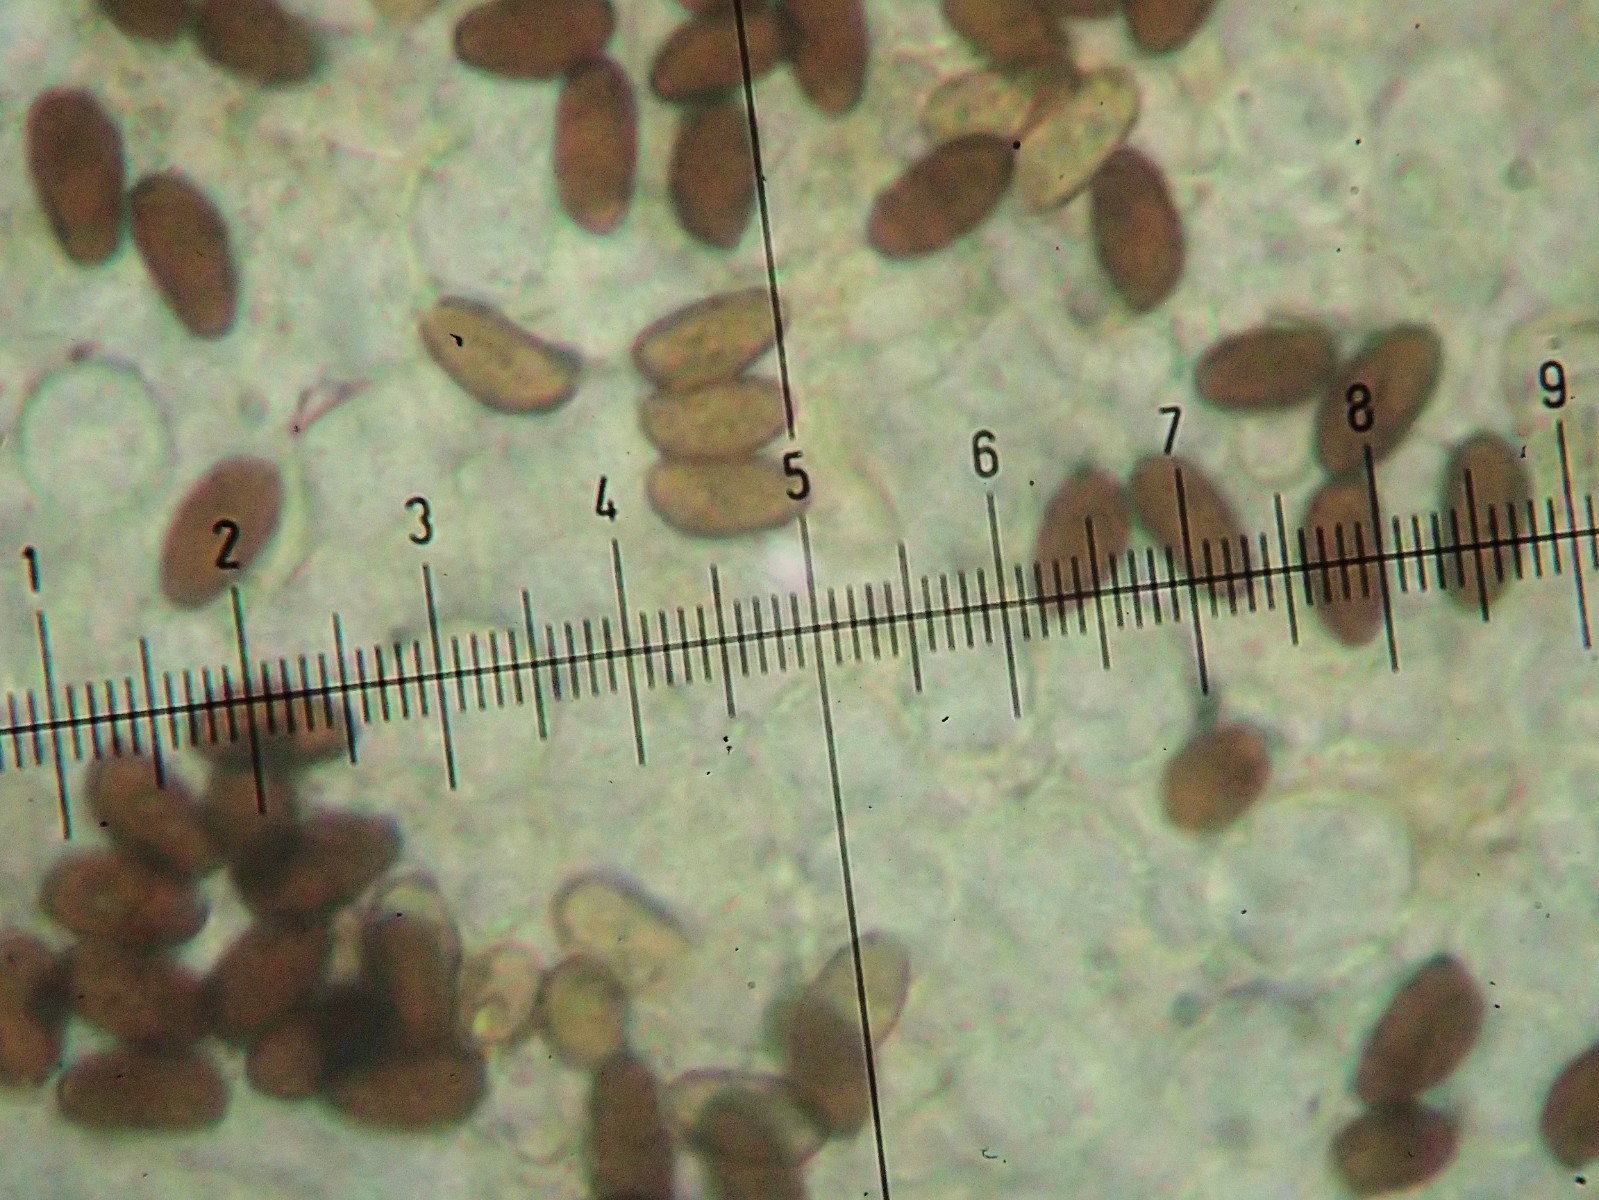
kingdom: Fungi
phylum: Basidiomycota
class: Agaricomycetes
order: Agaricales
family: Psathyrellaceae
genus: Psathyrella
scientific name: Psathyrella senex
